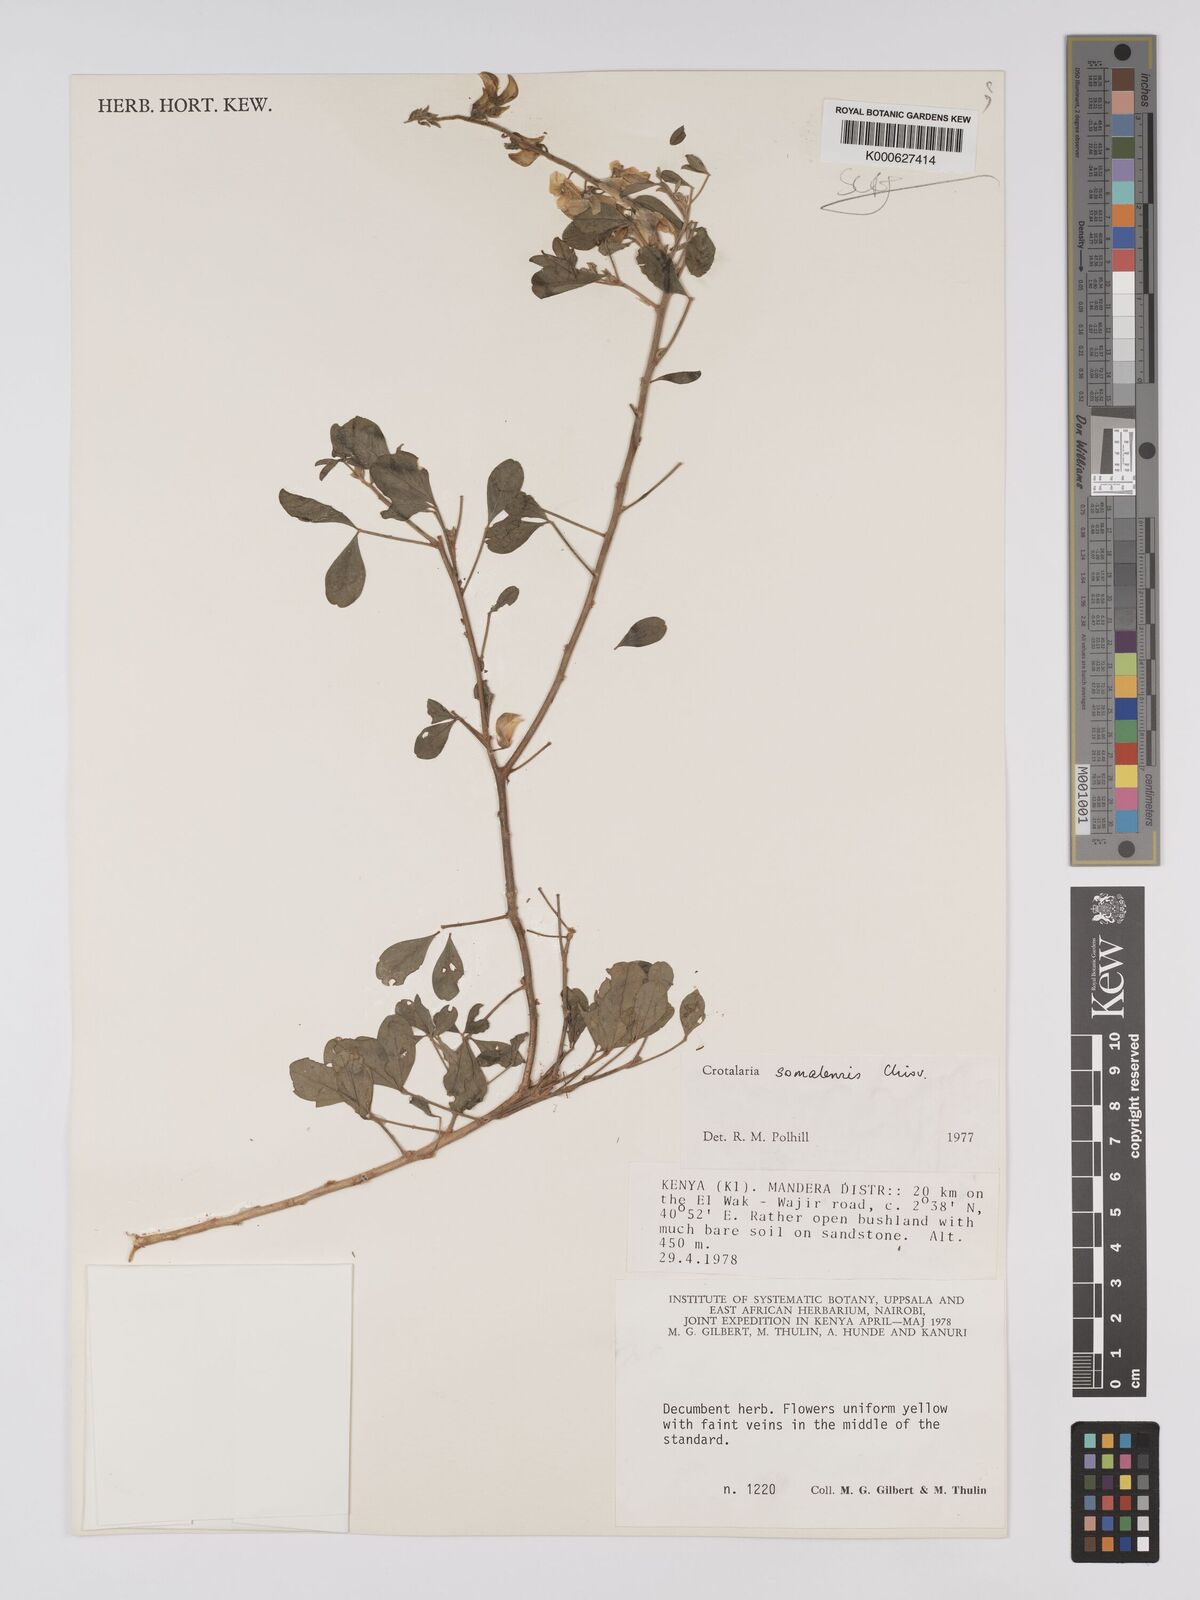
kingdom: Plantae
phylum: Tracheophyta
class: Magnoliopsida
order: Fabales
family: Fabaceae
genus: Crotalaria
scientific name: Crotalaria somalensis
